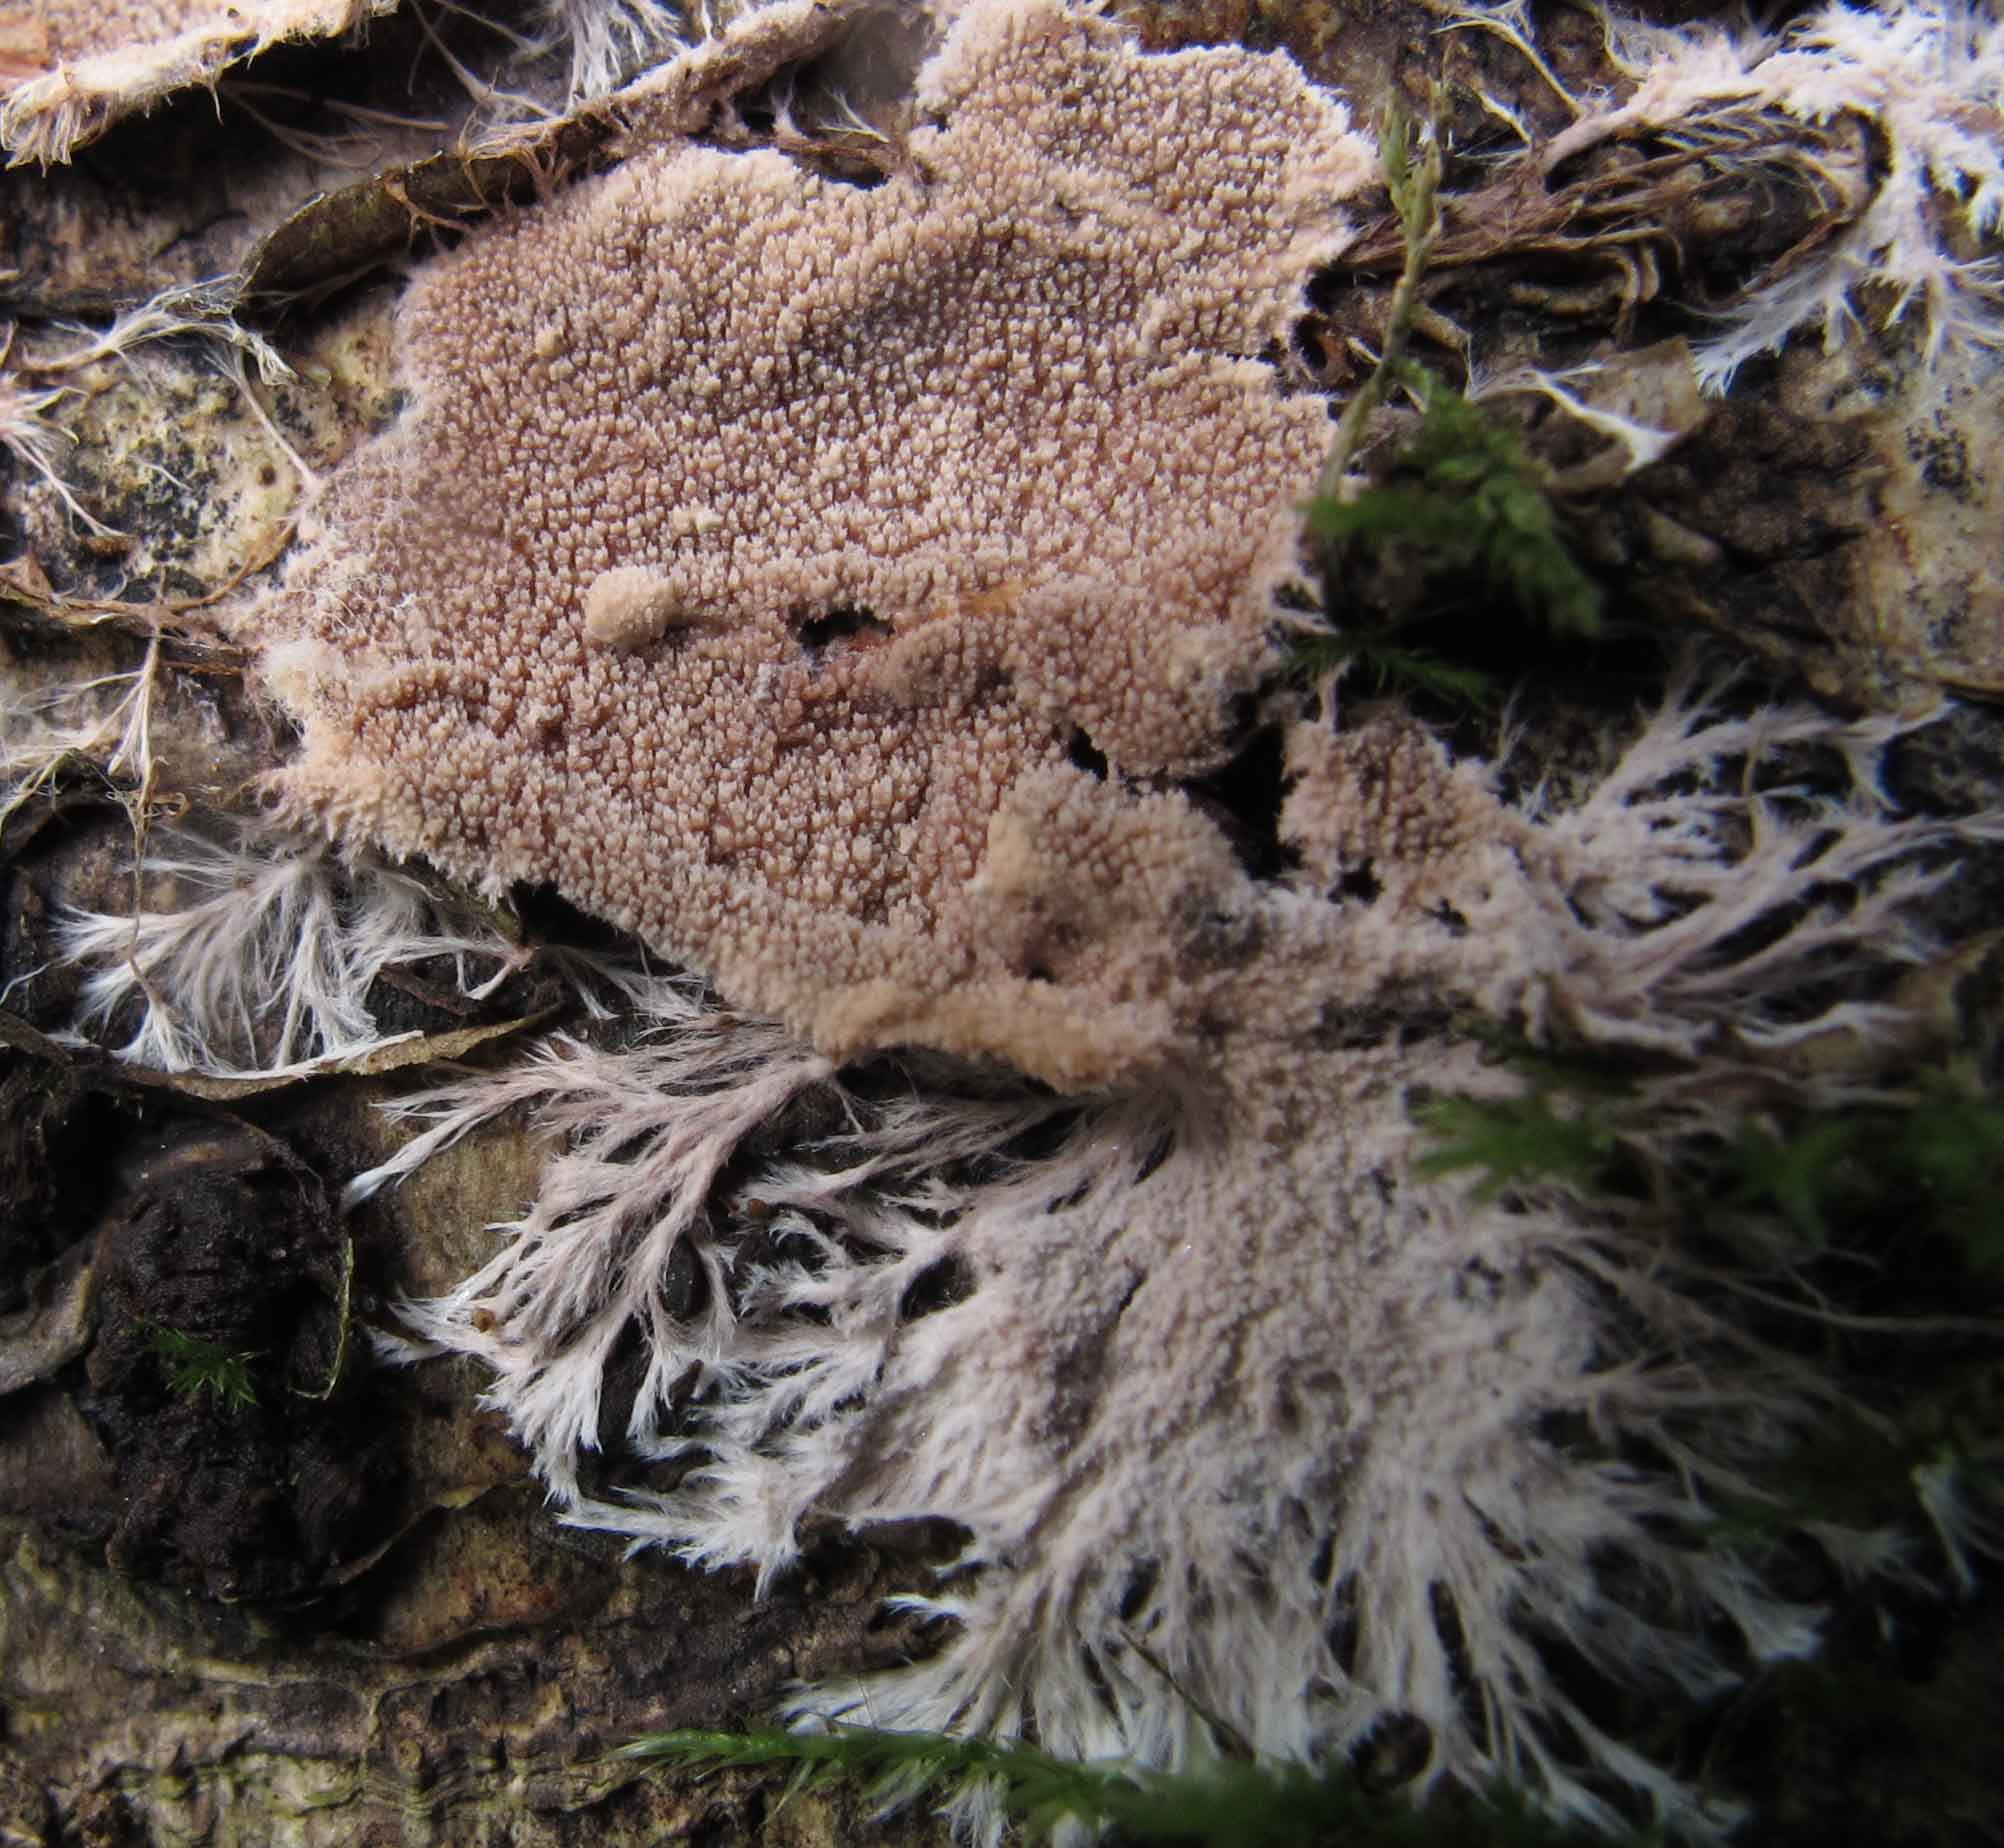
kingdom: Fungi
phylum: Basidiomycota
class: Agaricomycetes
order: Polyporales
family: Steccherinaceae
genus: Steccherinum
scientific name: Steccherinum fimbriatum
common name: trådet skønpig
